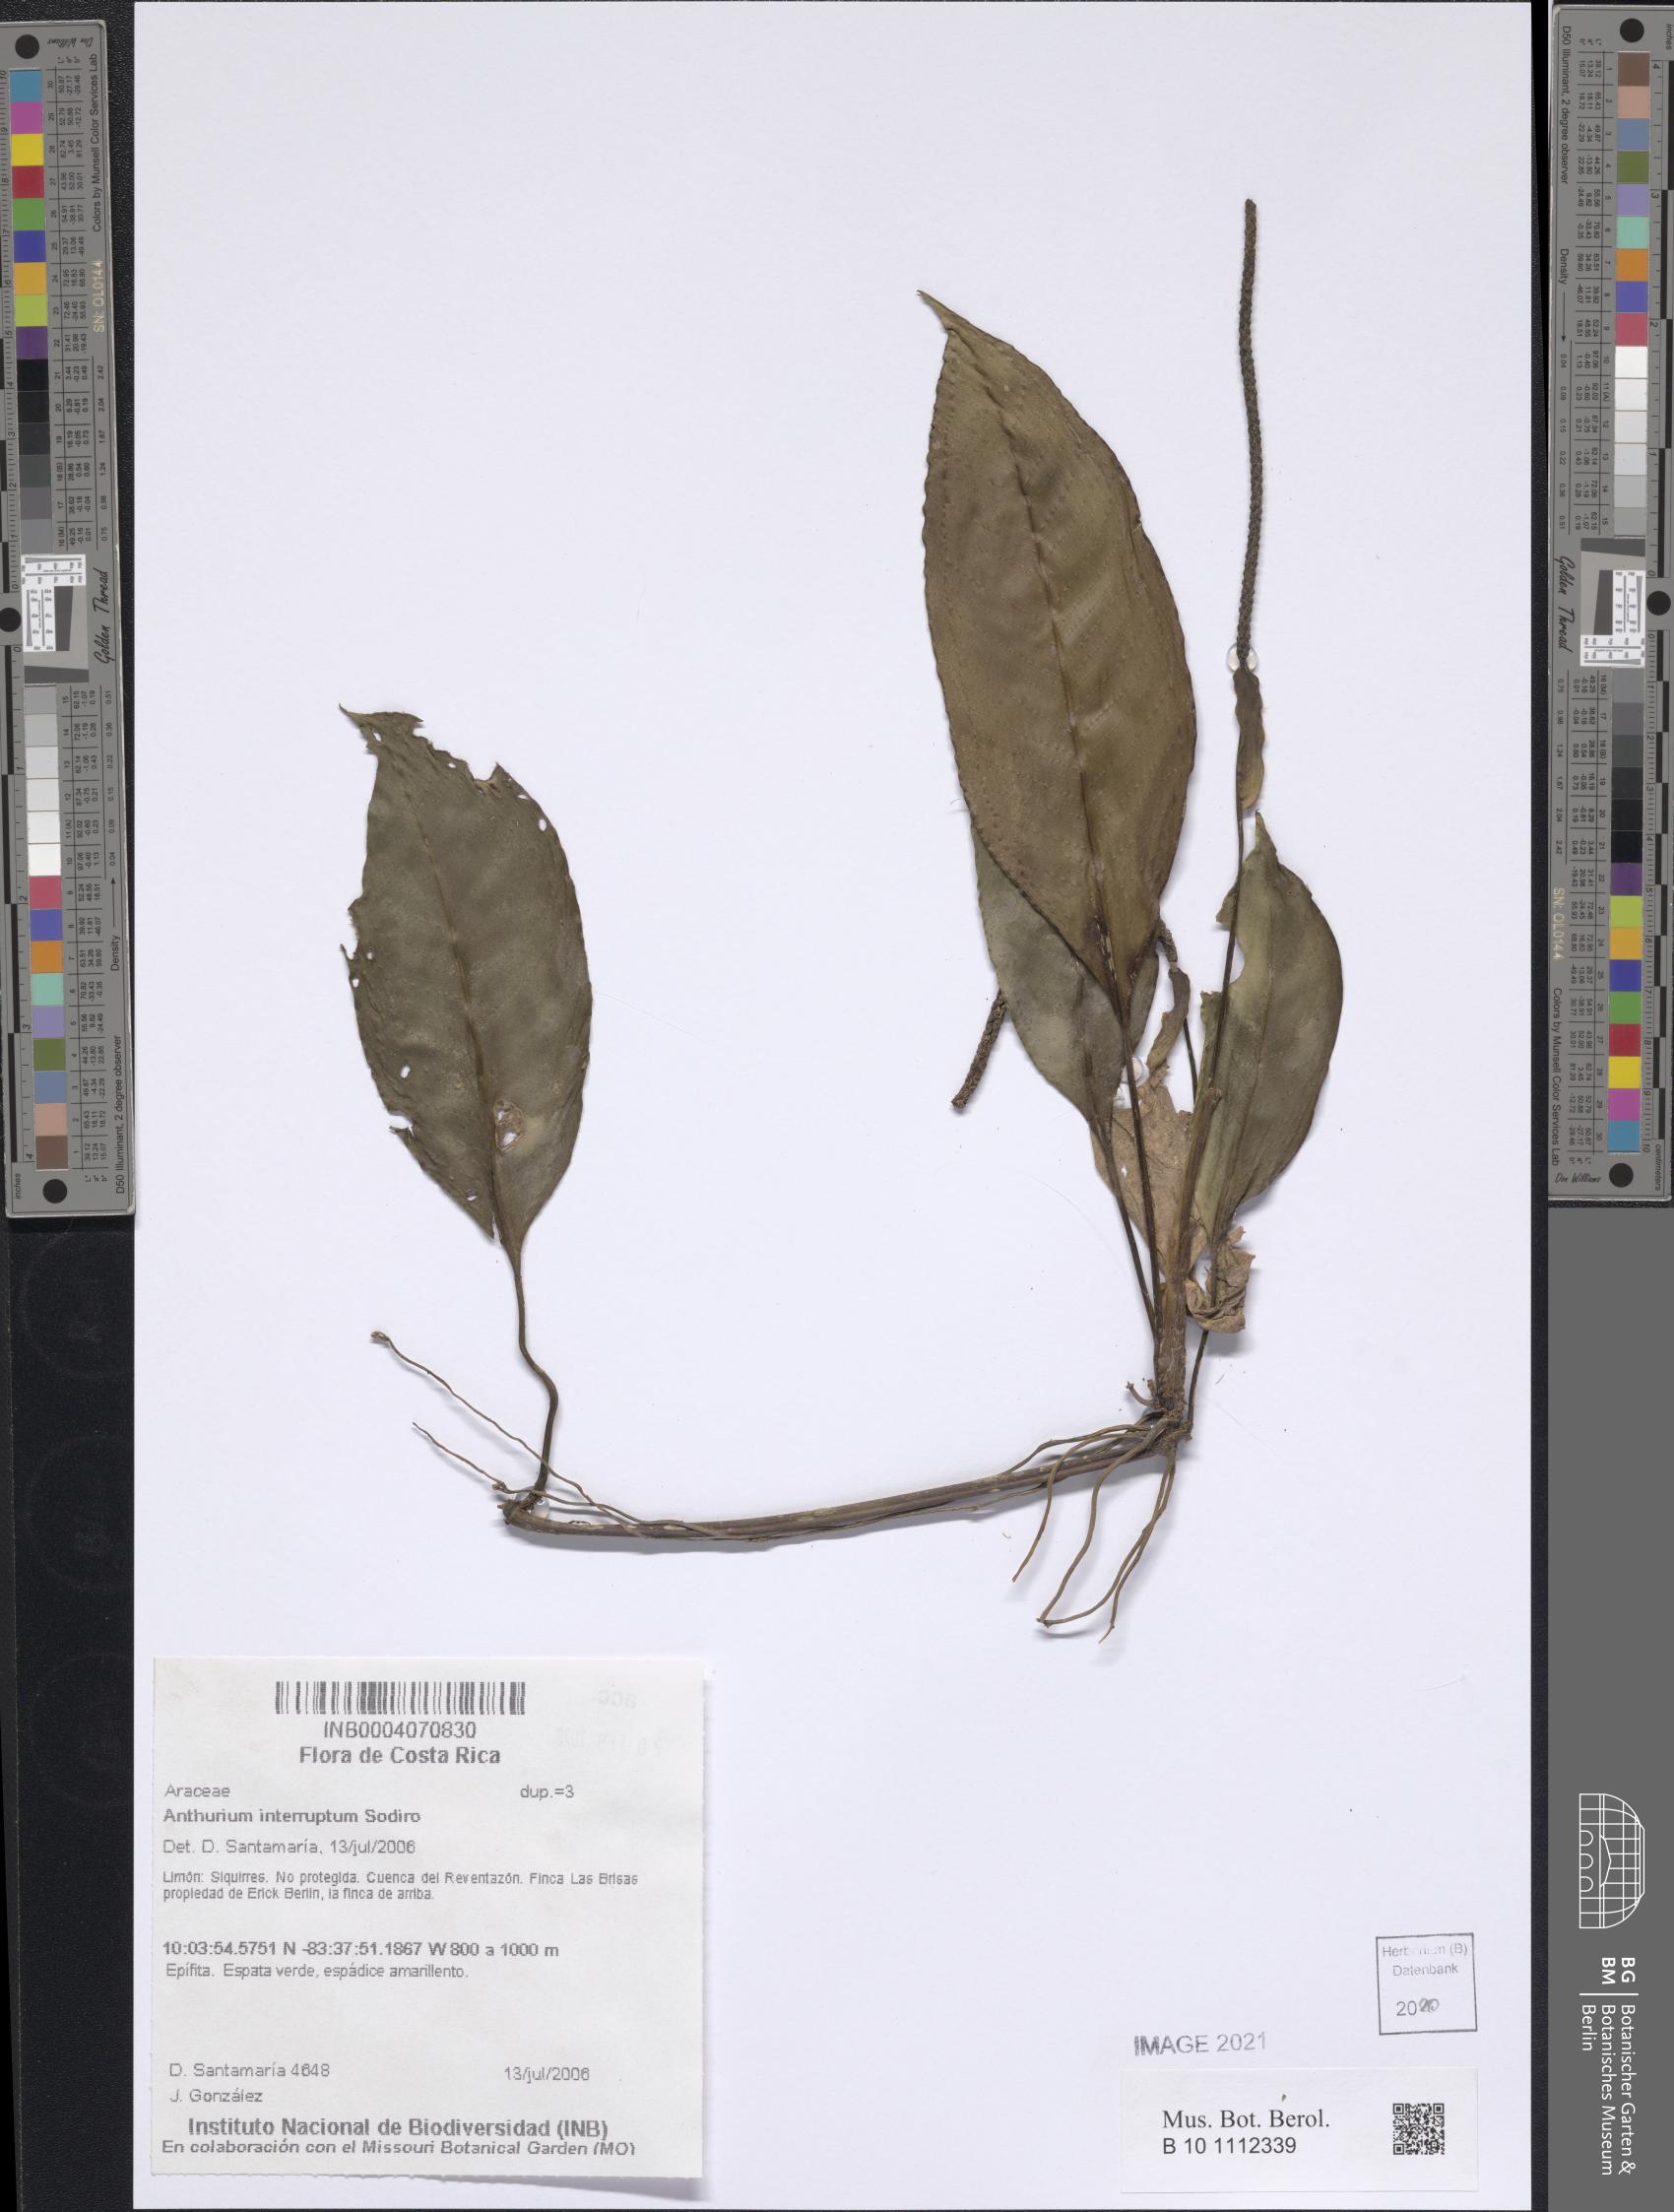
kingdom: Plantae
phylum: Tracheophyta
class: Liliopsida
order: Alismatales
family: Araceae
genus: Anthurium
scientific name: Anthurium interruptum
